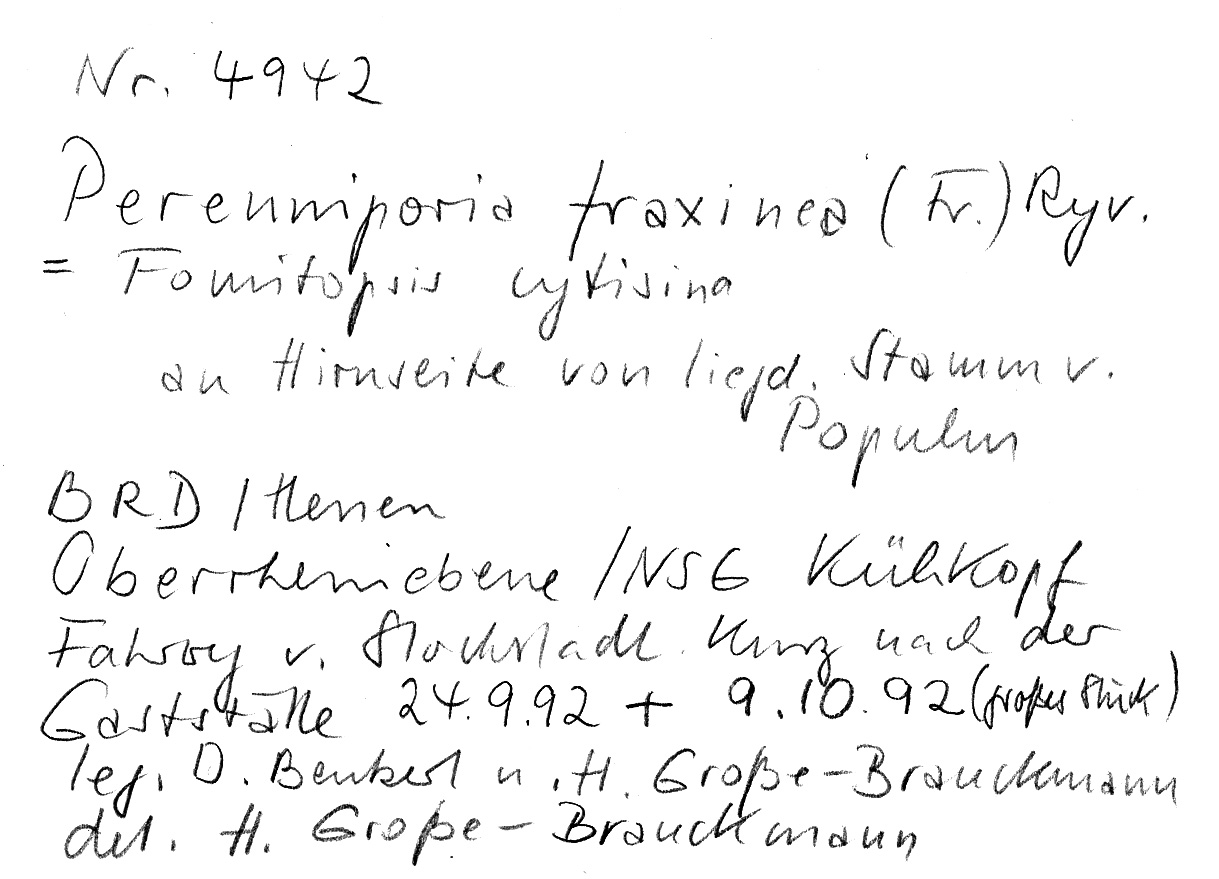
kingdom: Plantae
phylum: Tracheophyta
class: Magnoliopsida
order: Malpighiales
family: Salicaceae
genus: Populus
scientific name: Populus
